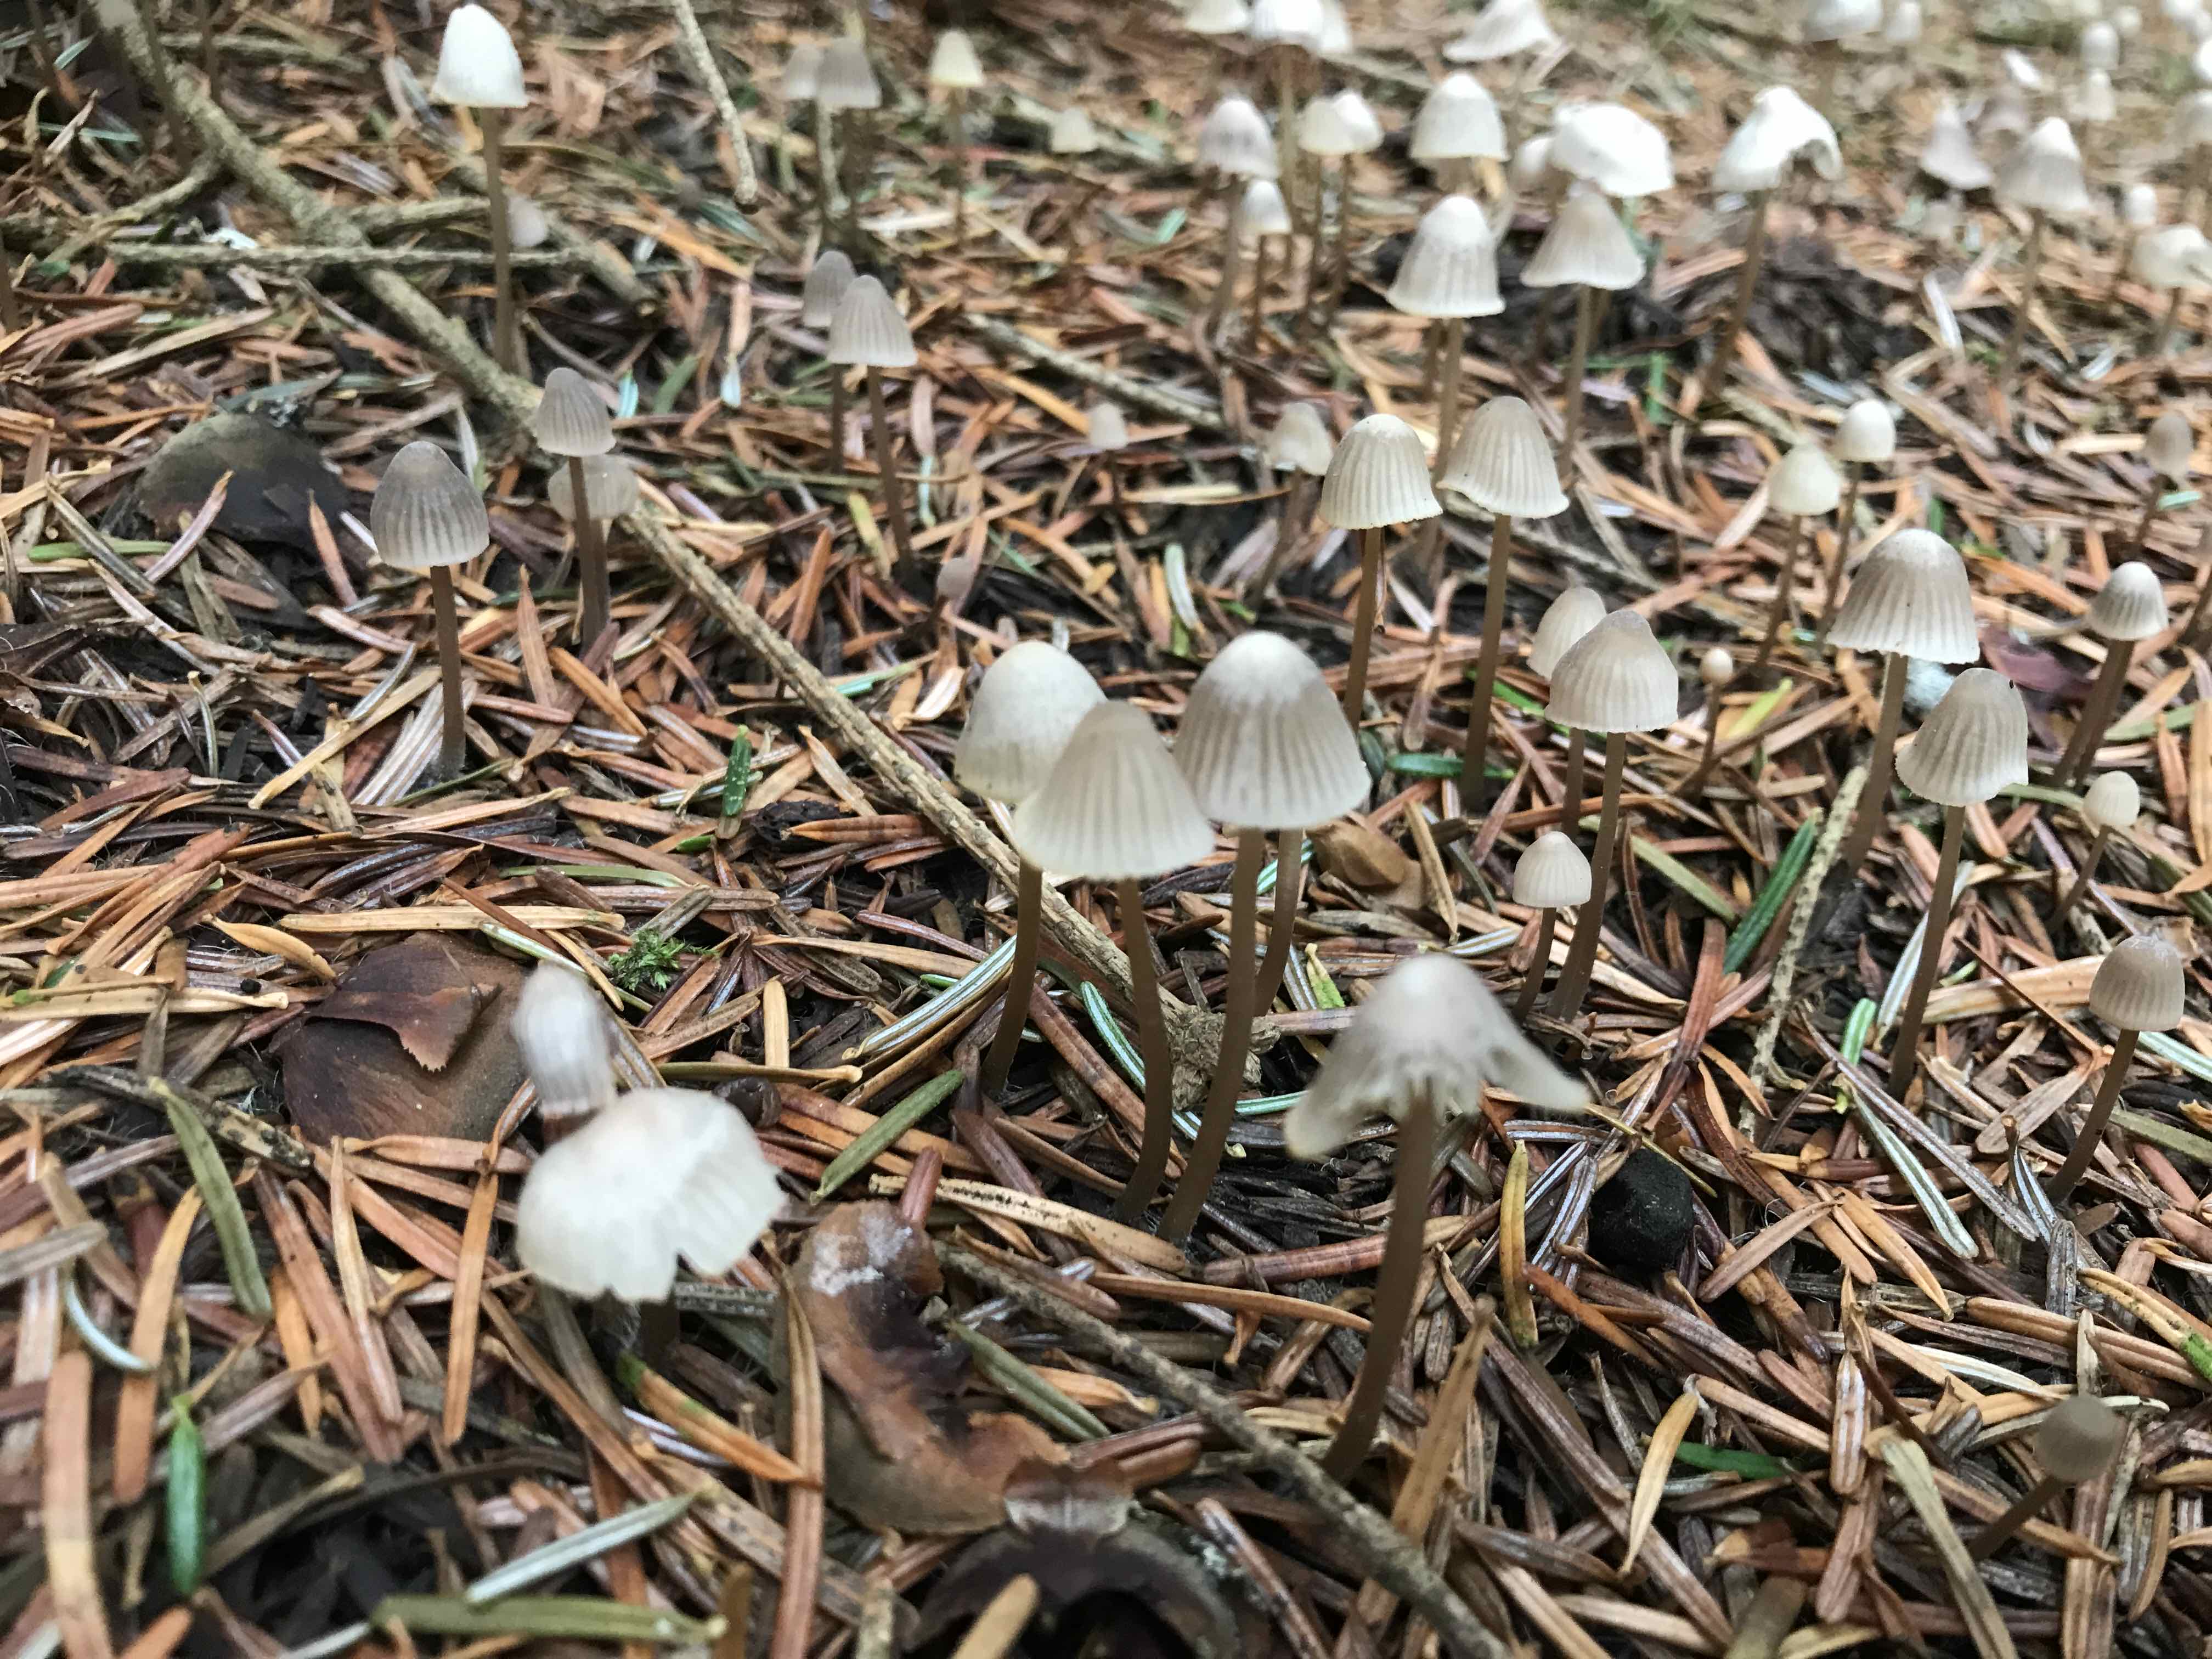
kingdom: Fungi
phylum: Basidiomycota
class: Agaricomycetes
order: Agaricales
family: Mycenaceae
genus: Mycena
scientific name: Mycena
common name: huesvamp
